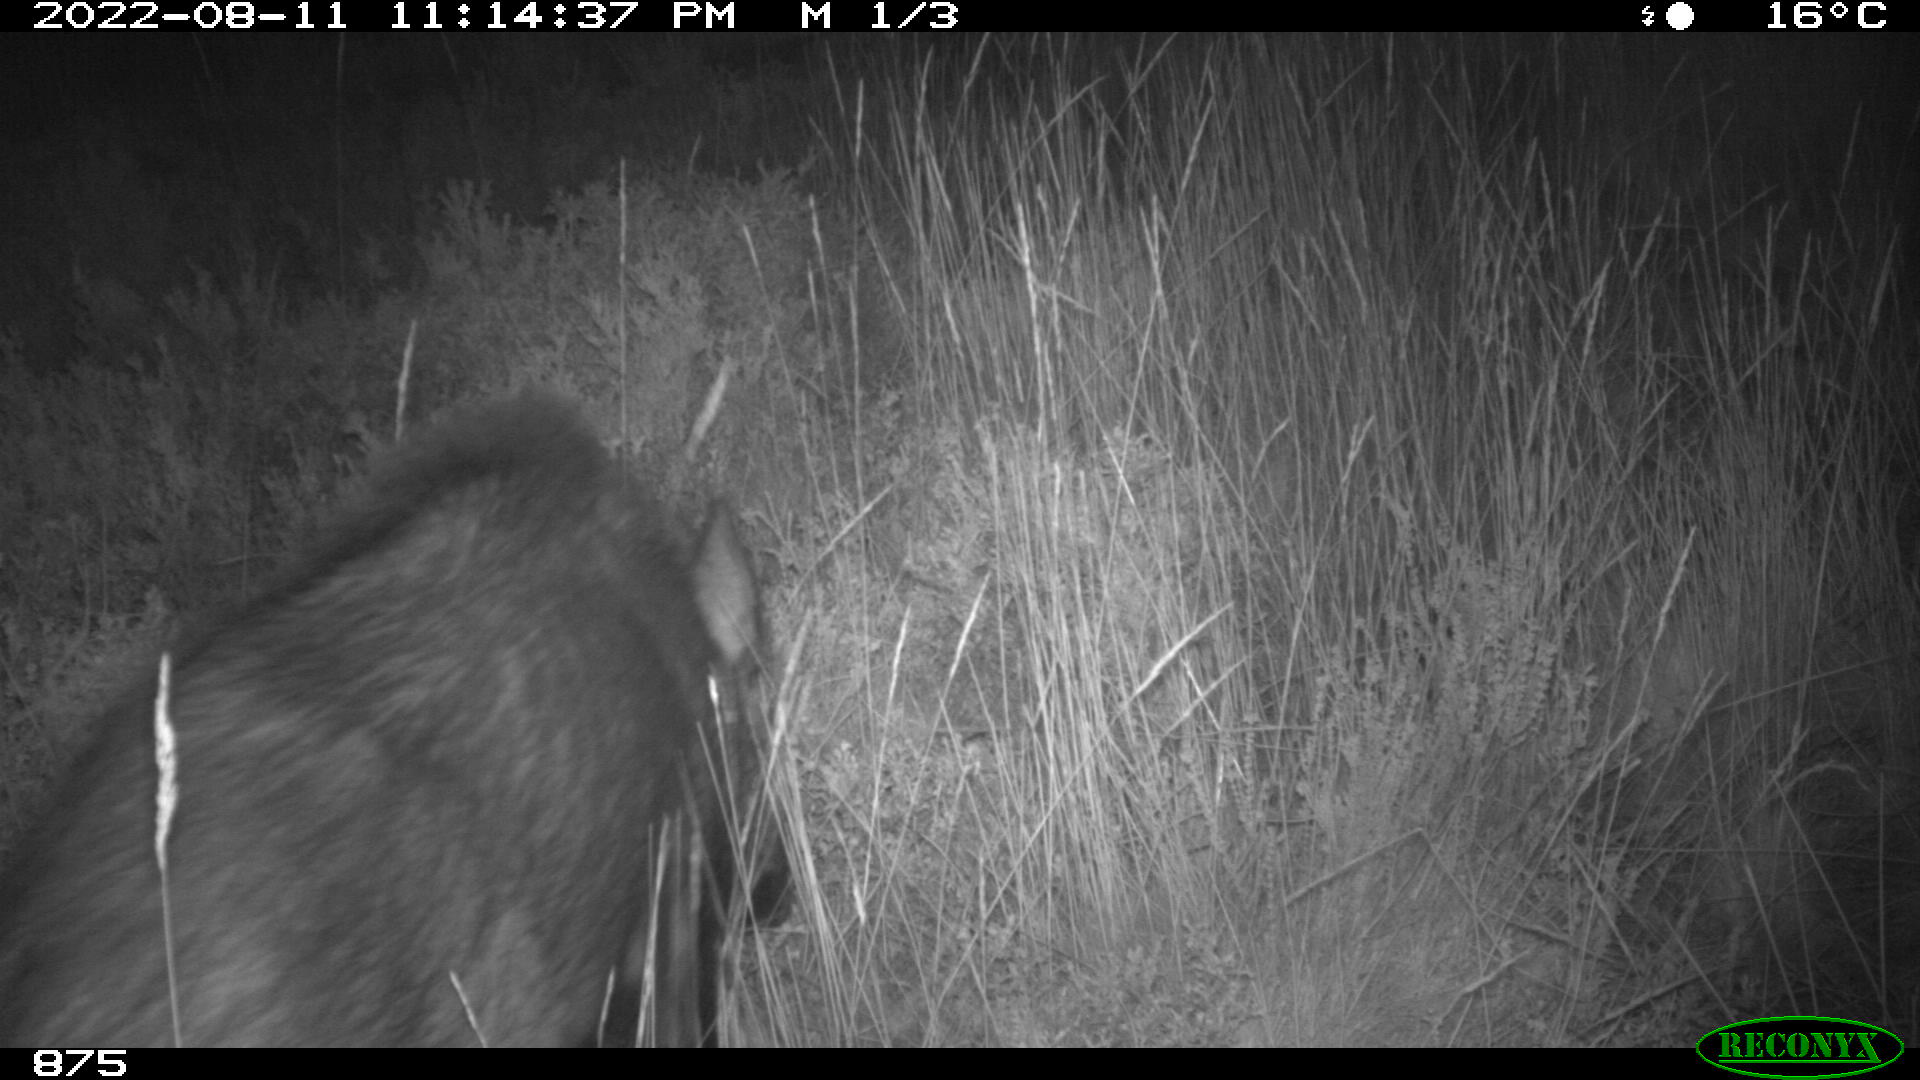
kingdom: Animalia
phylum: Chordata
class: Mammalia
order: Artiodactyla
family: Suidae
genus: Sus
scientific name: Sus scrofa
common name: Wild boar
